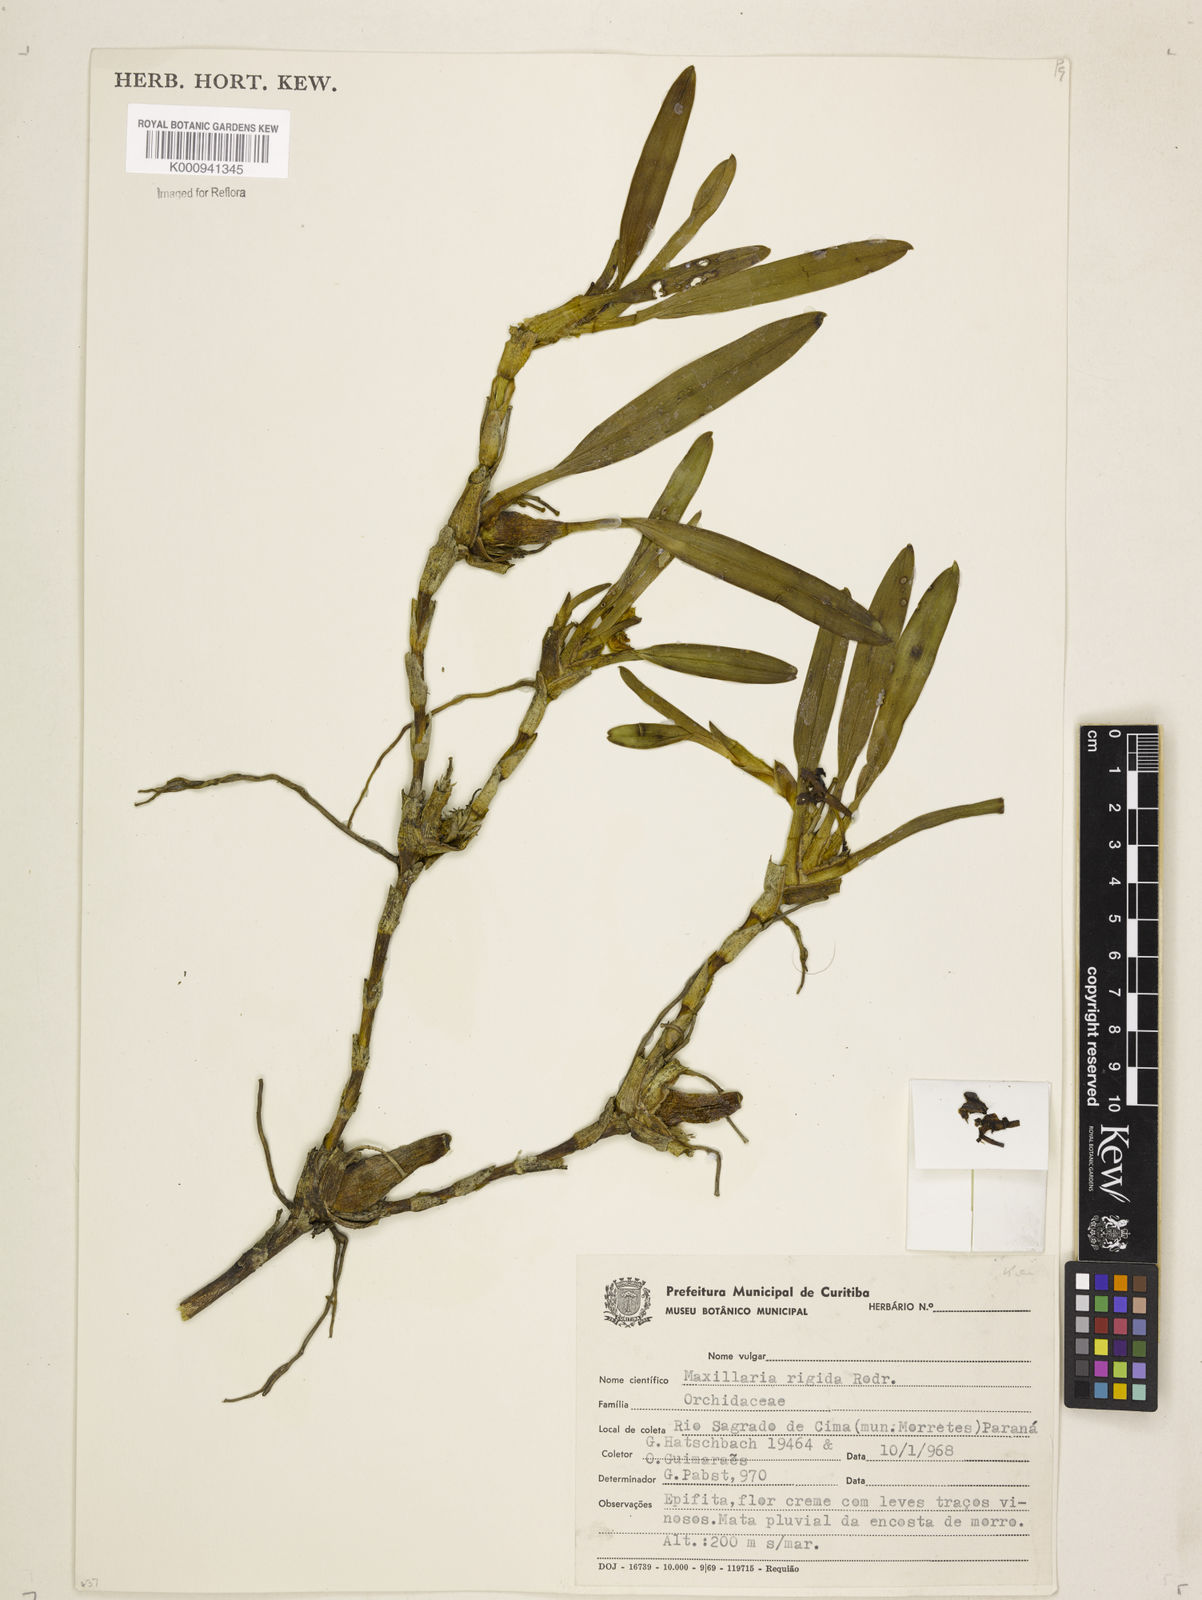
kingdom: Plantae
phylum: Tracheophyta
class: Liliopsida
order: Asparagales
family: Orchidaceae
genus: Maxillaria
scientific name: Maxillaria rigida
